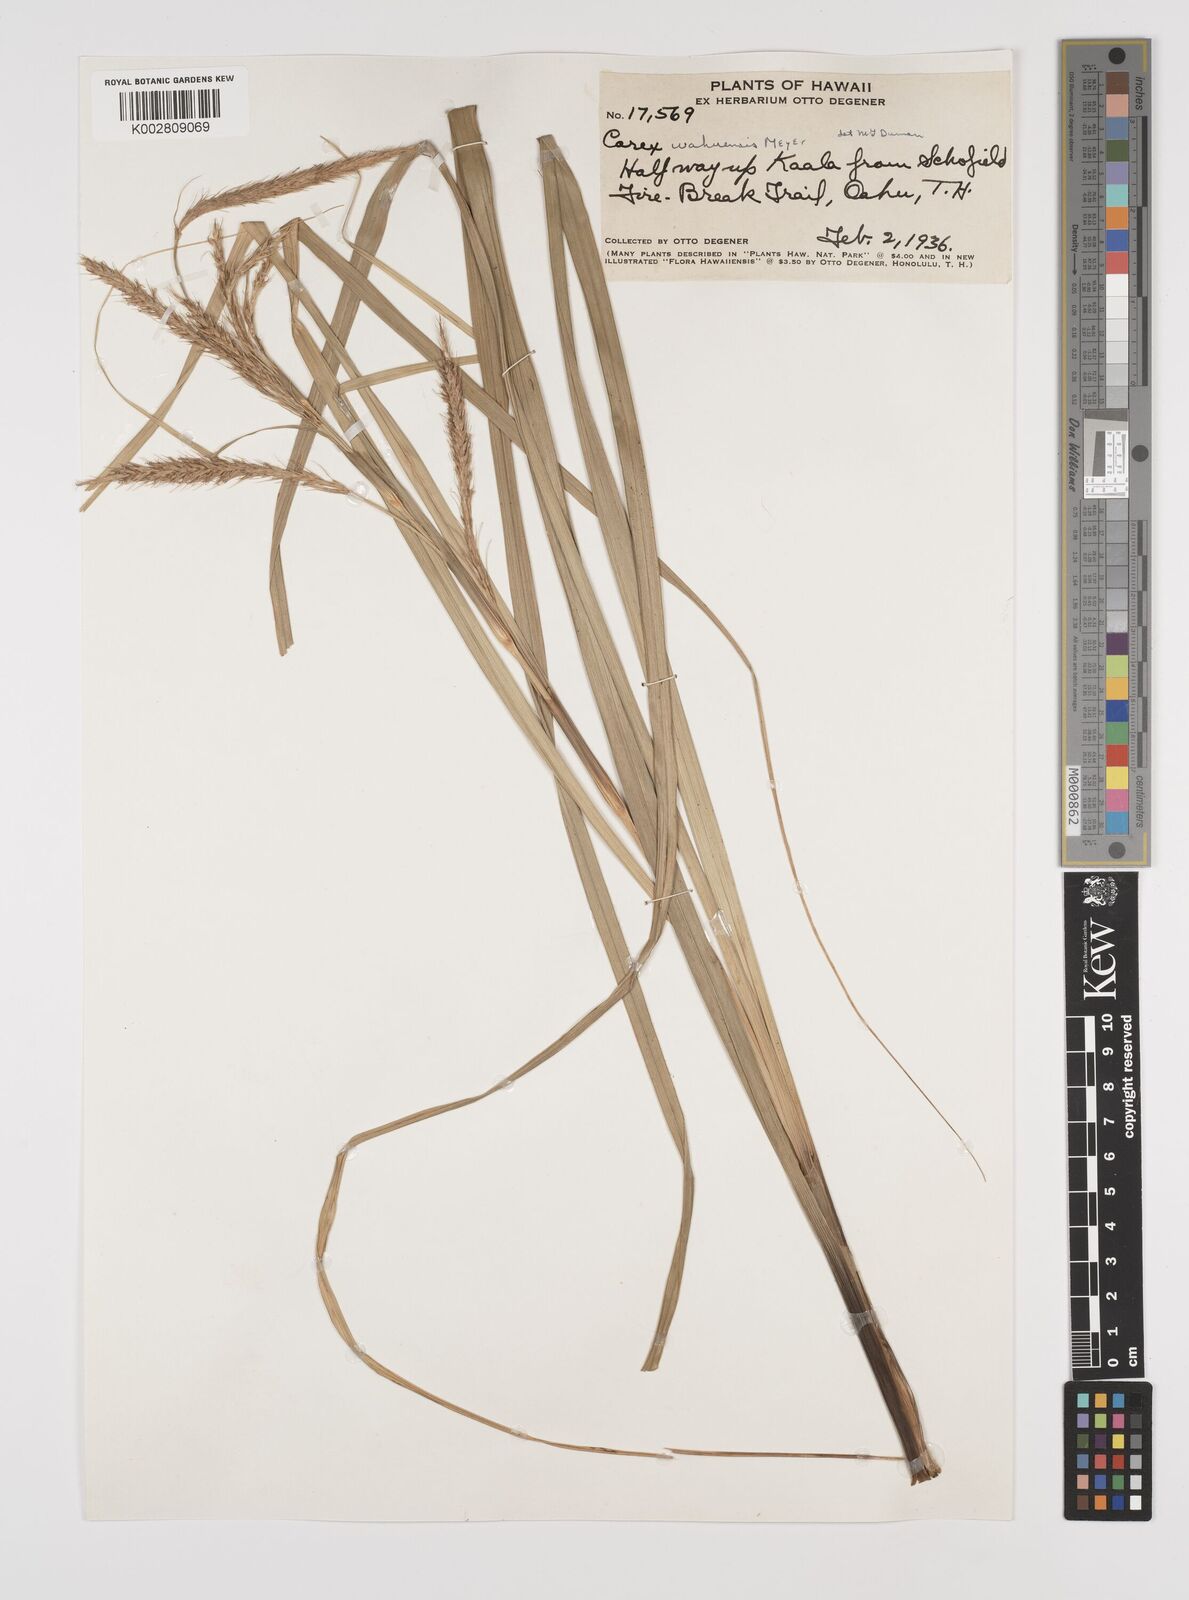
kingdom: Plantae
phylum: Tracheophyta
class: Liliopsida
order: Poales
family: Cyperaceae
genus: Carex
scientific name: Carex wahuensis
